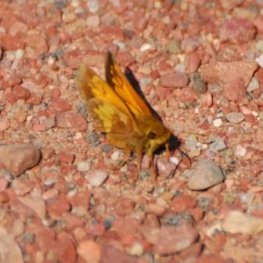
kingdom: Animalia
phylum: Arthropoda
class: Insecta
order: Lepidoptera
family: Hesperiidae
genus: Lon
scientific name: Lon hobomok
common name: Hobomok Skipper
